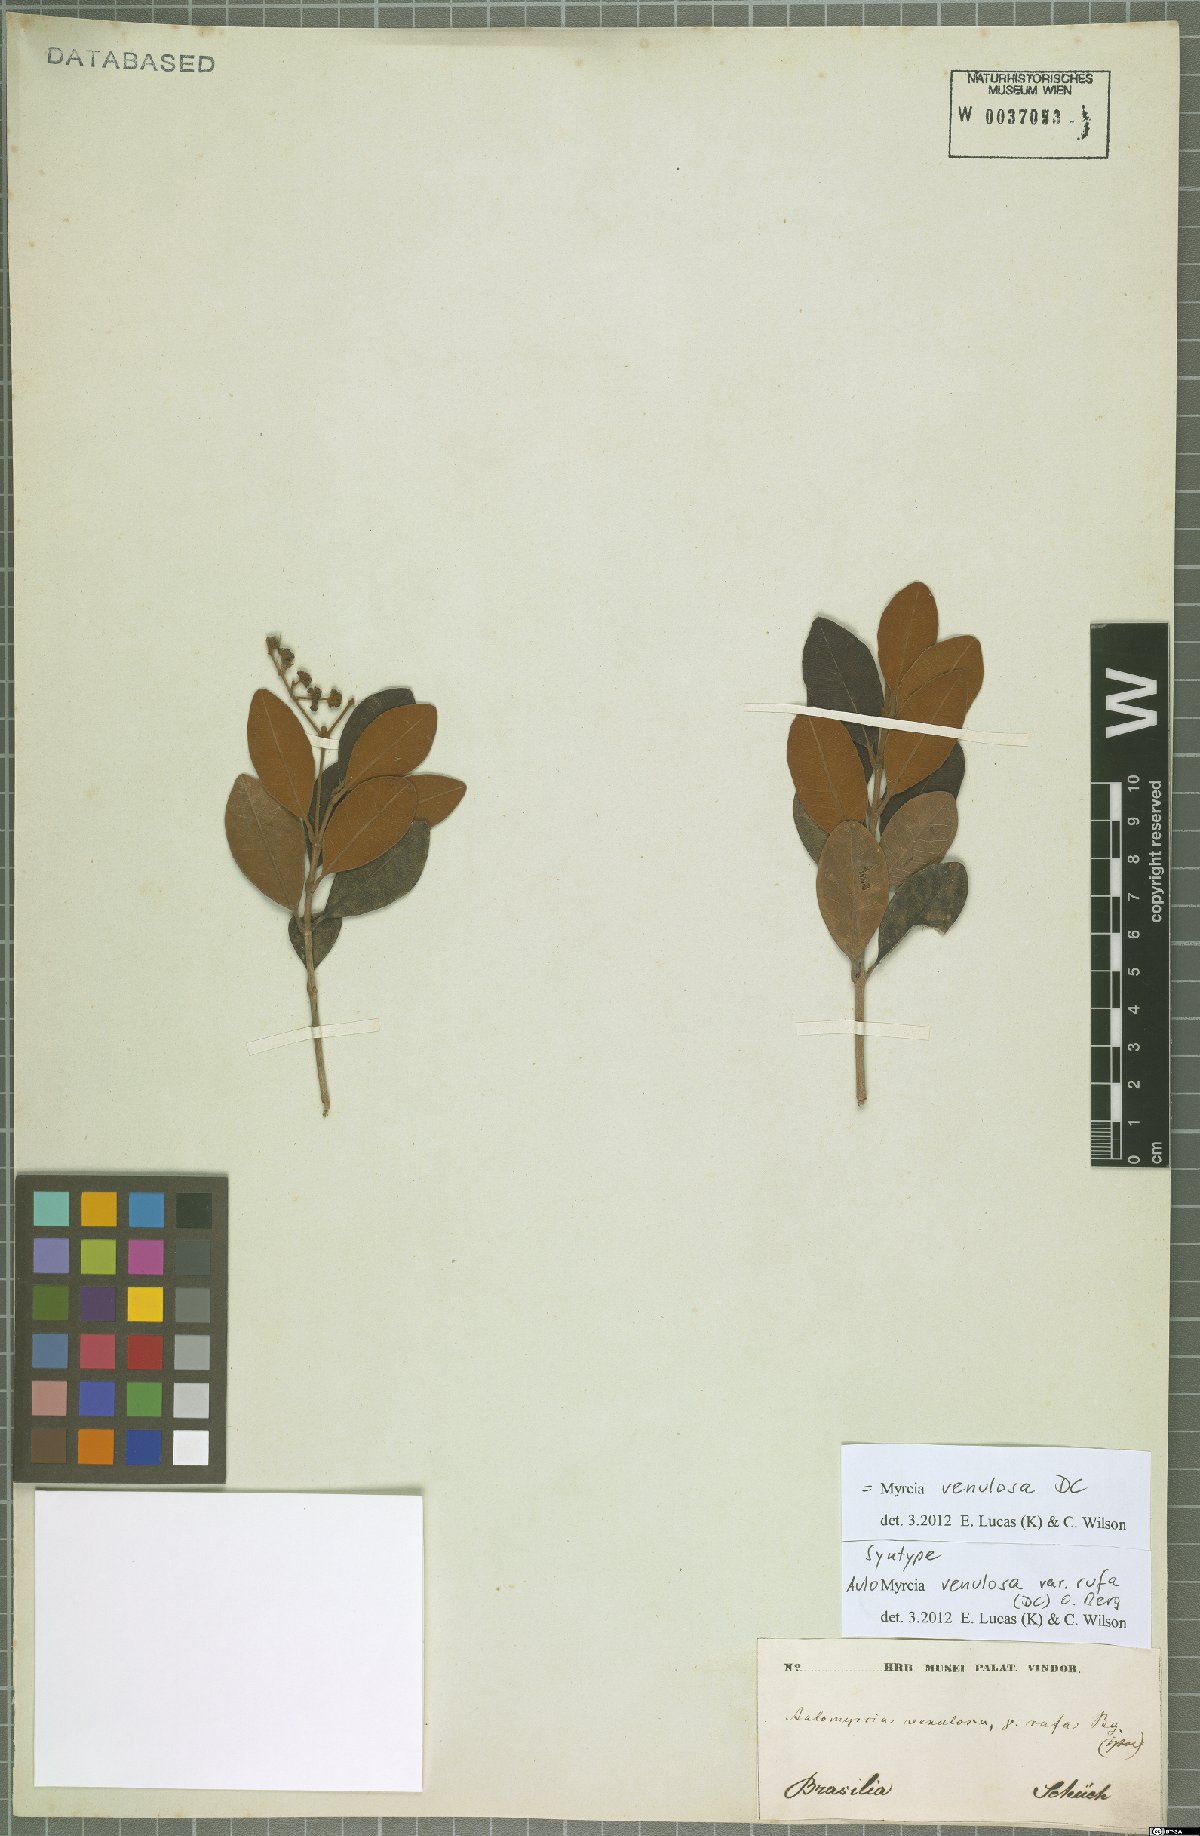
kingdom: Plantae
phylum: Tracheophyta
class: Magnoliopsida
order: Myrtales
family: Myrtaceae
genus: Myrcia
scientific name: Myrcia venulosa
